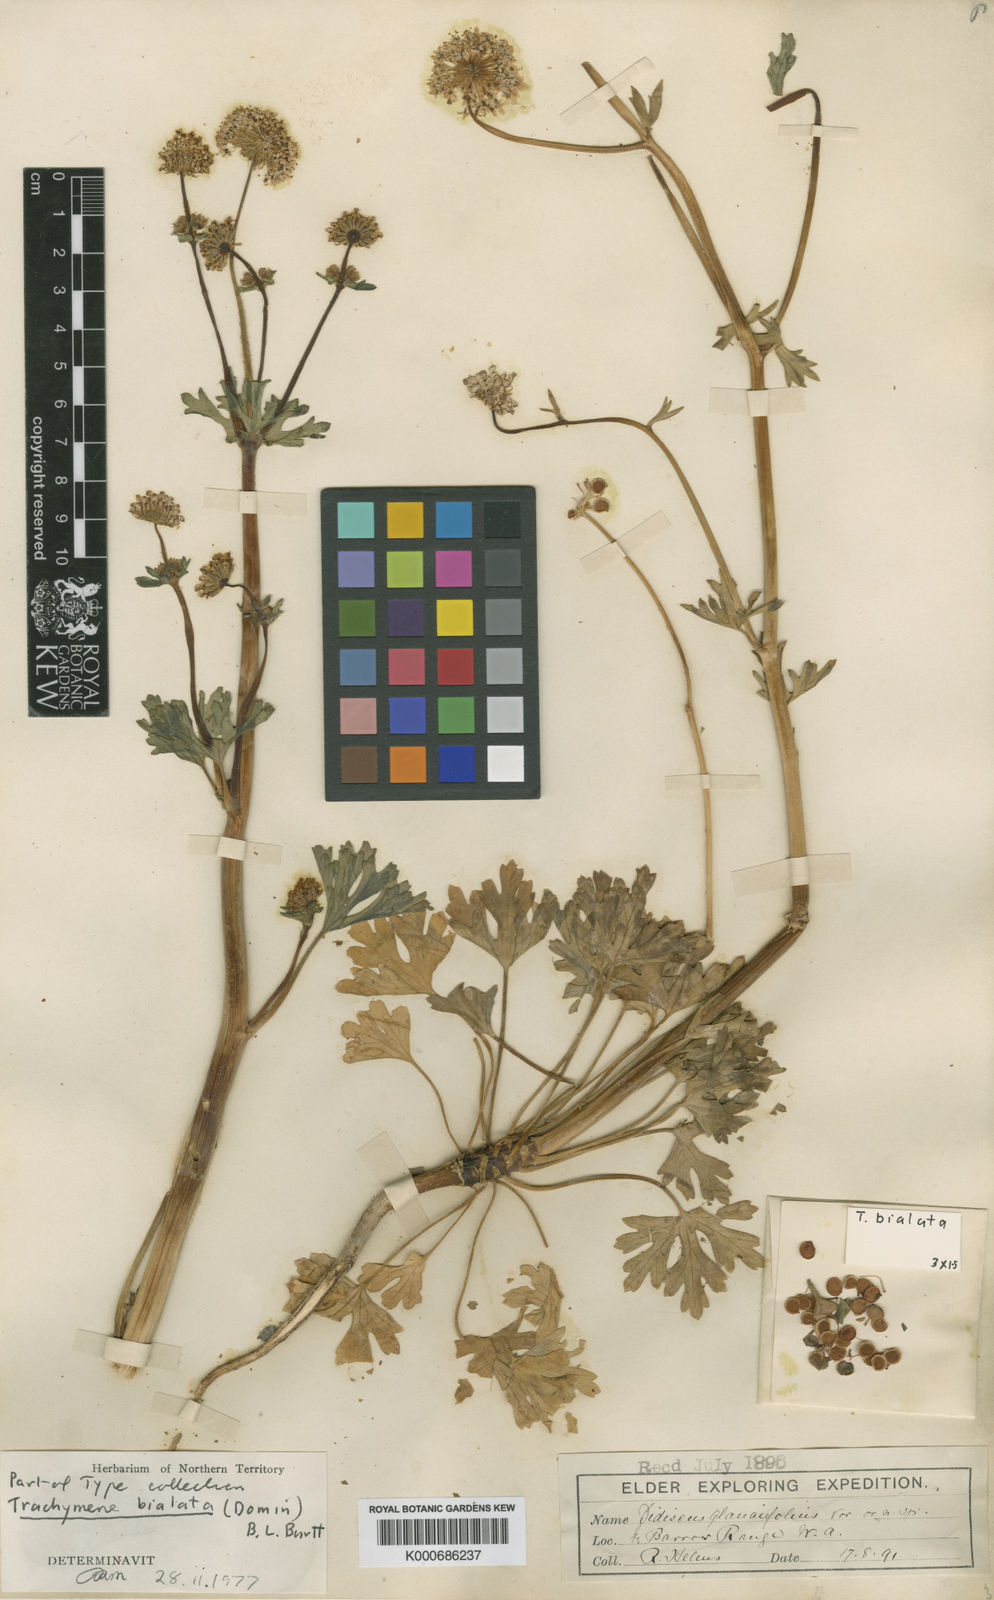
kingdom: Plantae
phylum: Tracheophyta
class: Magnoliopsida
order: Apiales
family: Araliaceae
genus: Trachymene
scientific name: Trachymene bialata
